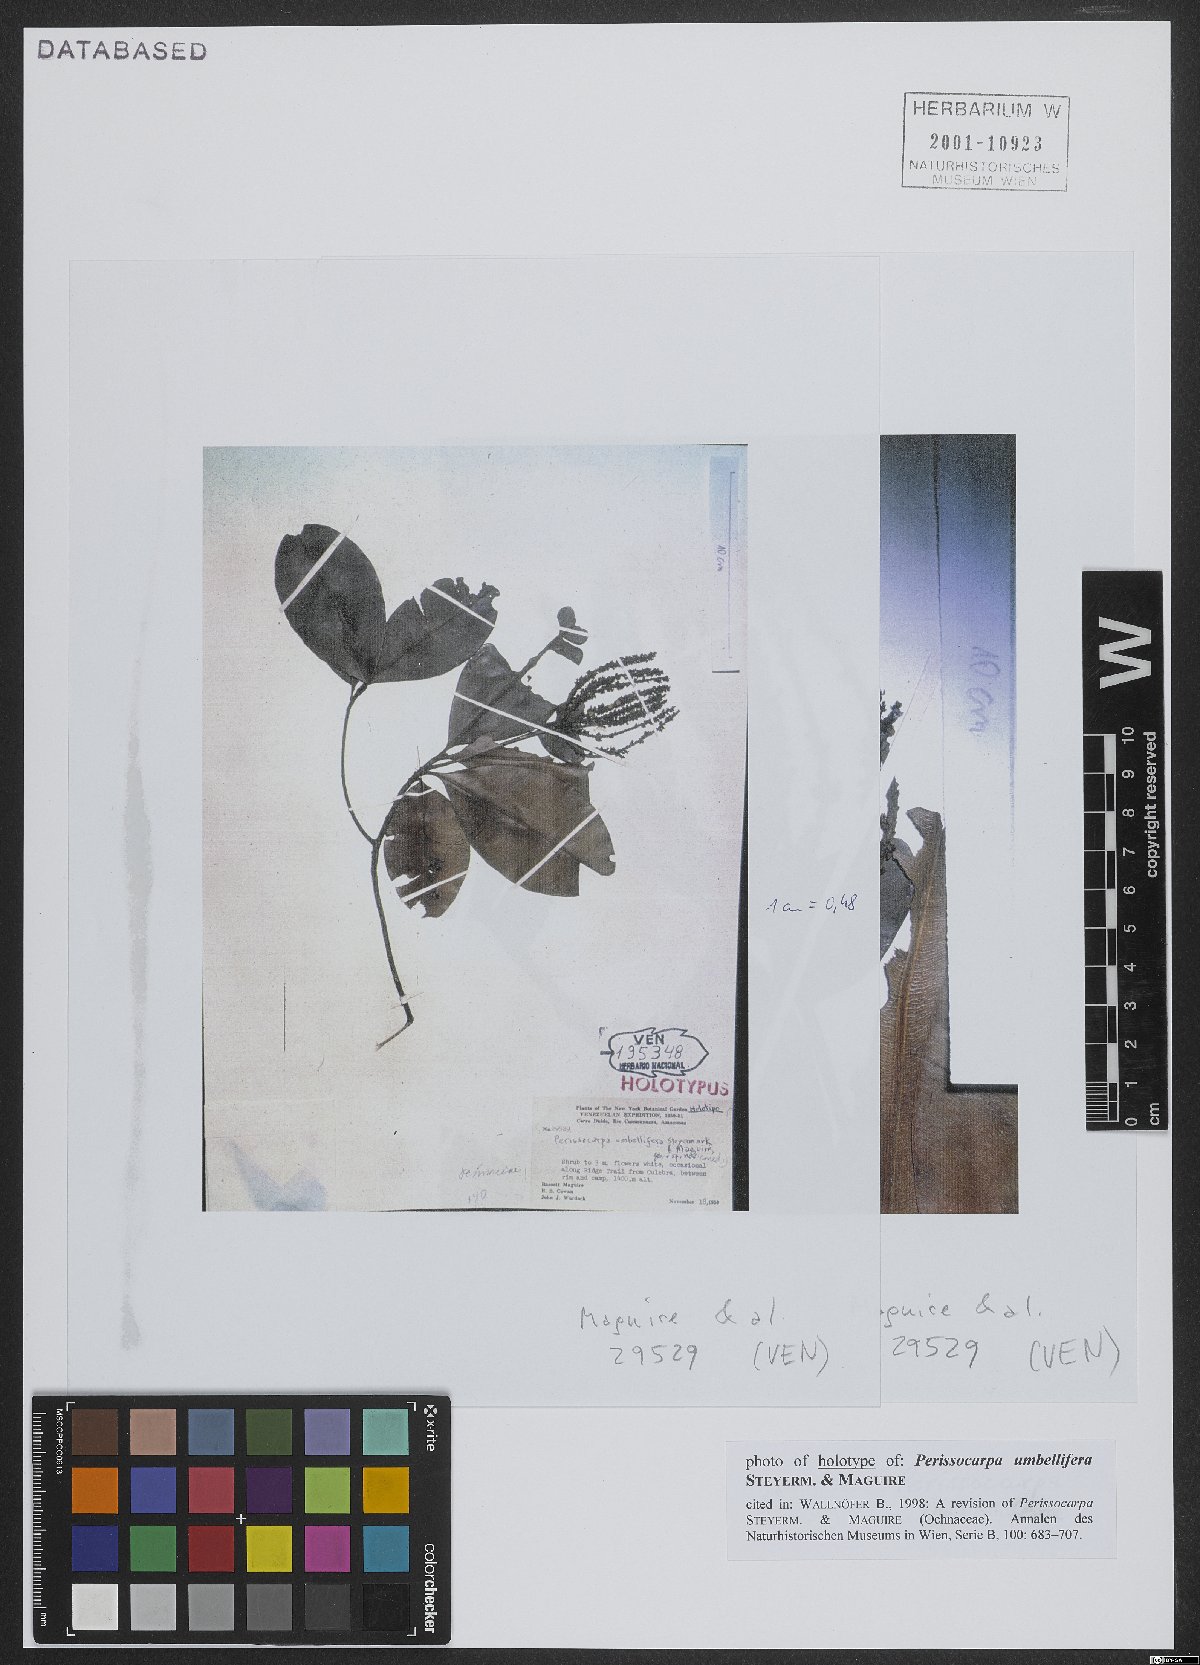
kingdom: Plantae
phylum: Tracheophyta
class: Magnoliopsida
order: Malpighiales
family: Ochnaceae
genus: Perissocarpa
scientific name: Perissocarpa umbellifera
